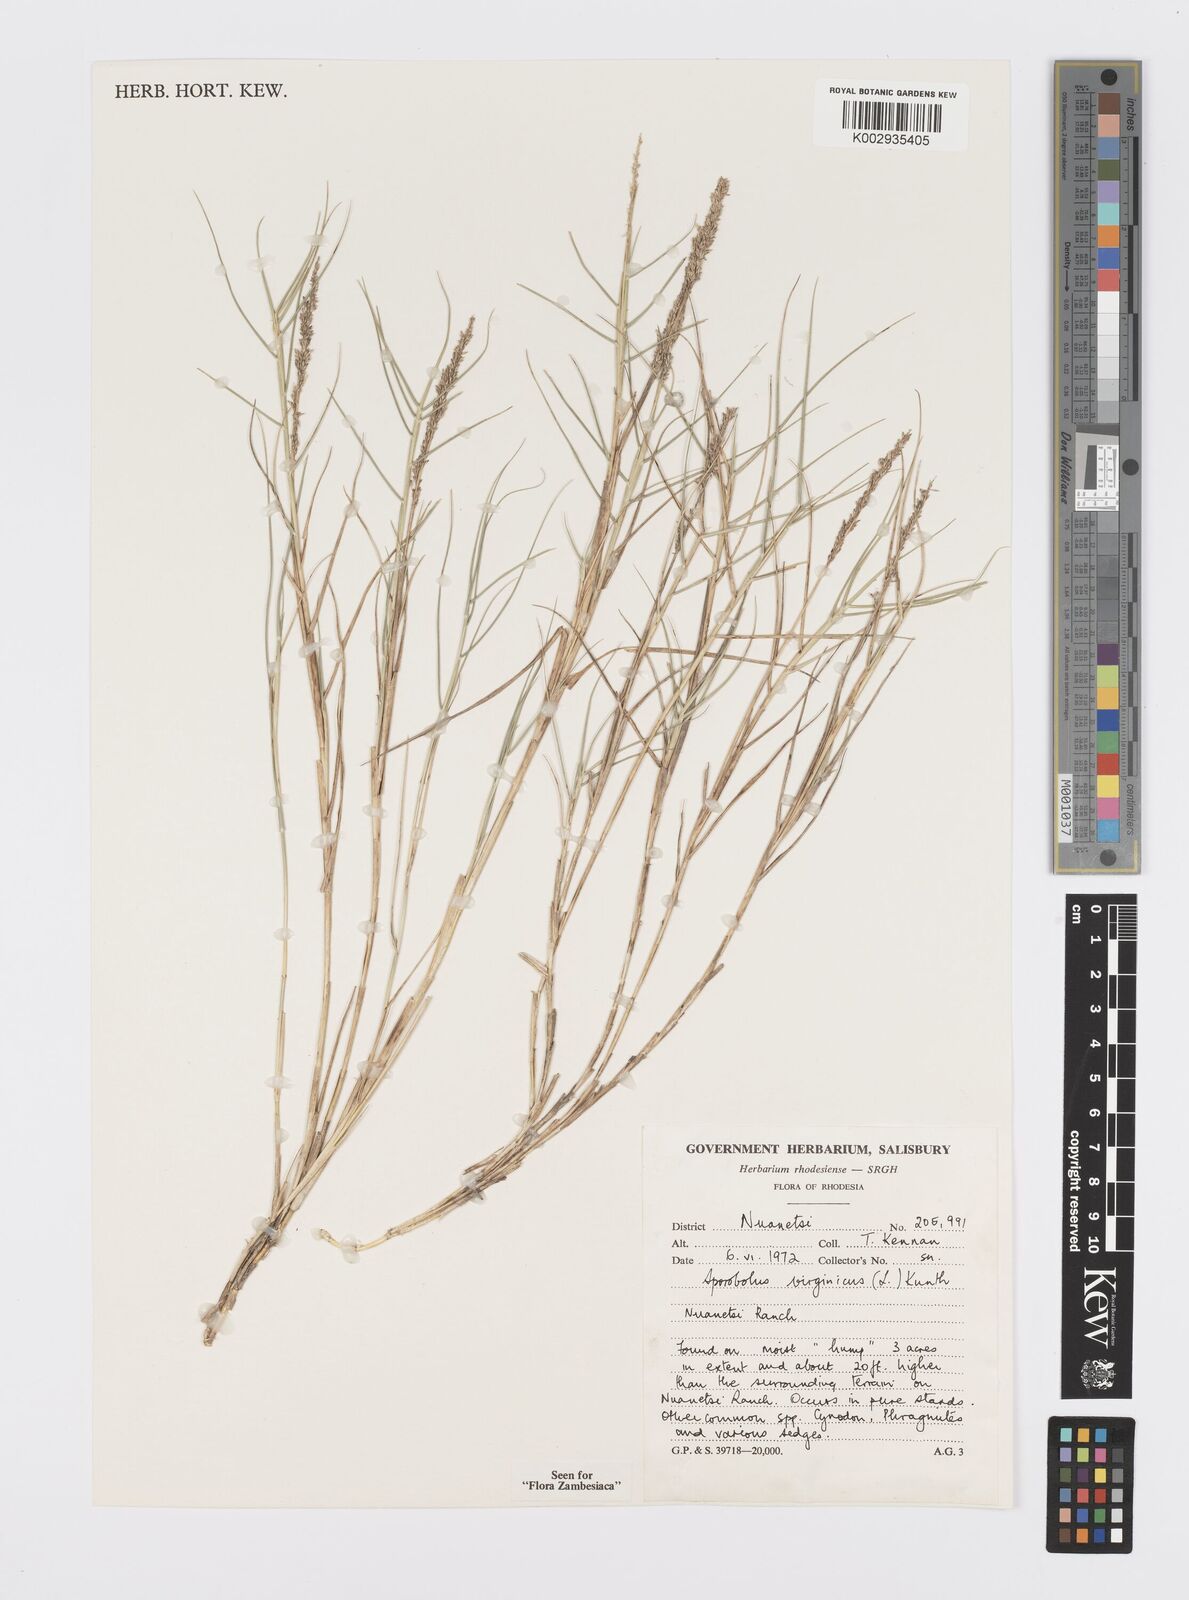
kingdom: Plantae
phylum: Tracheophyta
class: Liliopsida
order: Poales
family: Poaceae
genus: Sporobolus
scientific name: Sporobolus virginicus
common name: Beach dropseed
